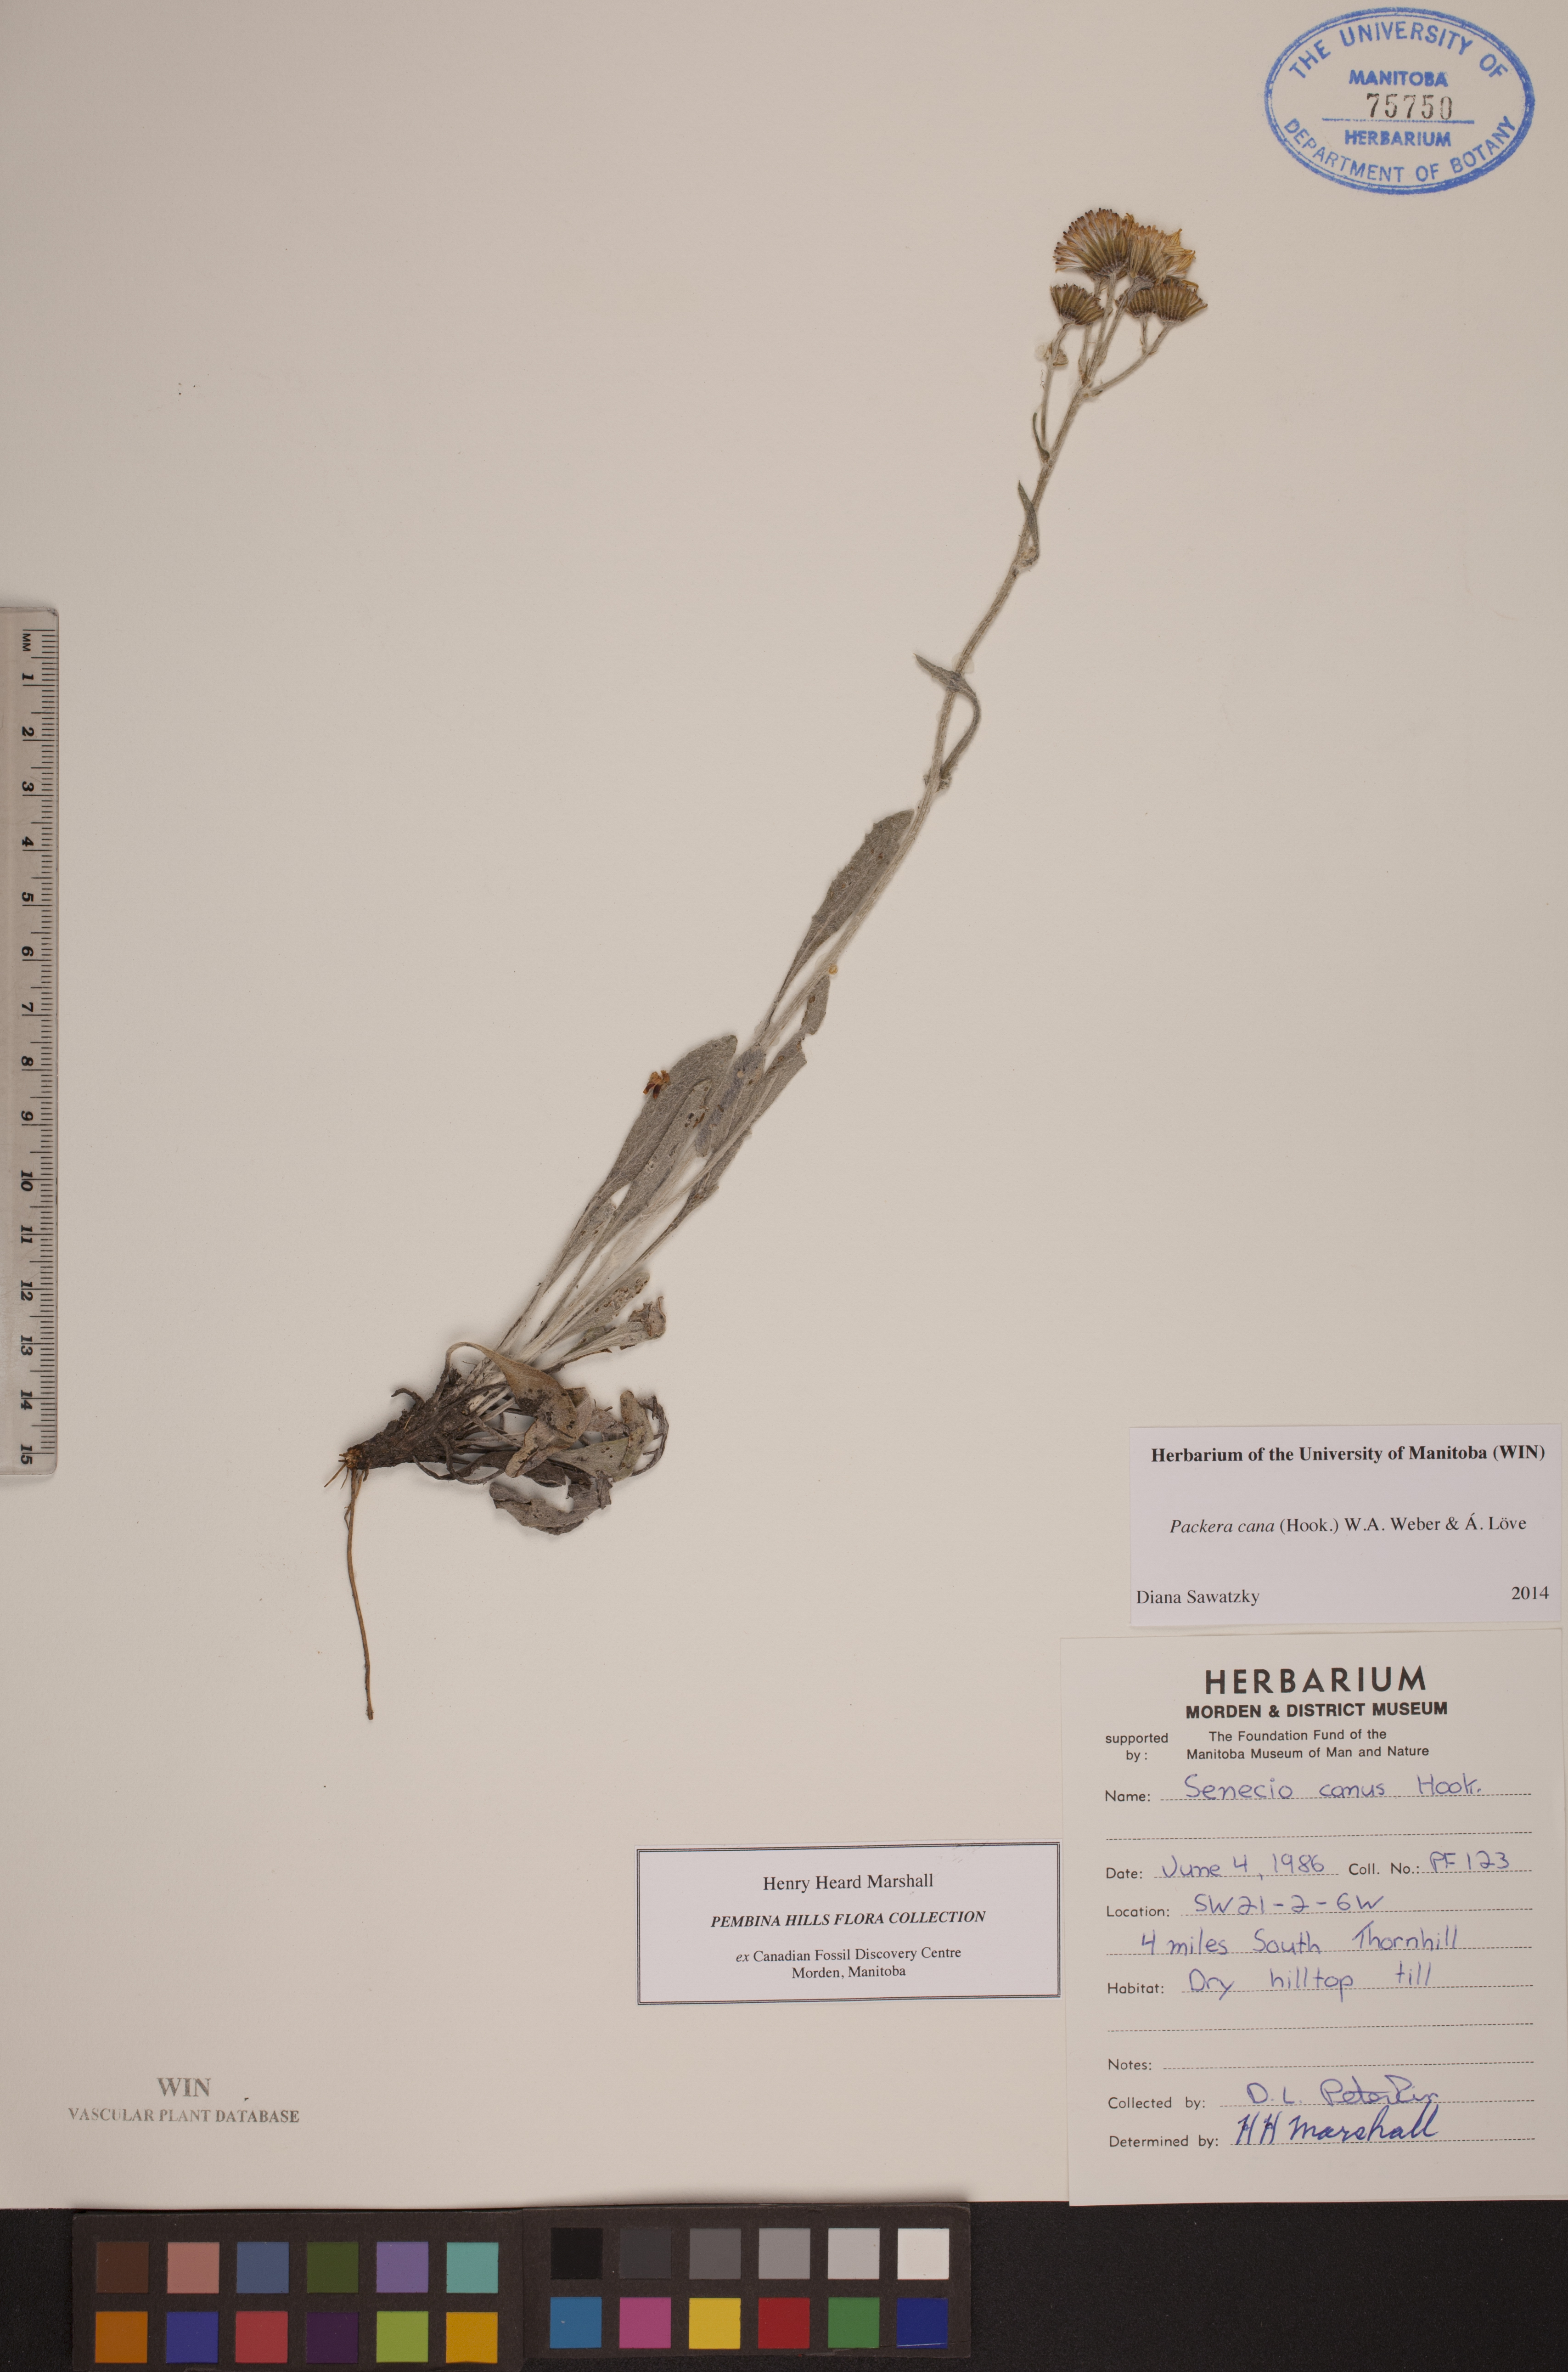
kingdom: Plantae
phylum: Tracheophyta
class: Magnoliopsida
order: Asterales
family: Asteraceae
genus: Packera
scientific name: Packera cana
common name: Woolly groundsel
